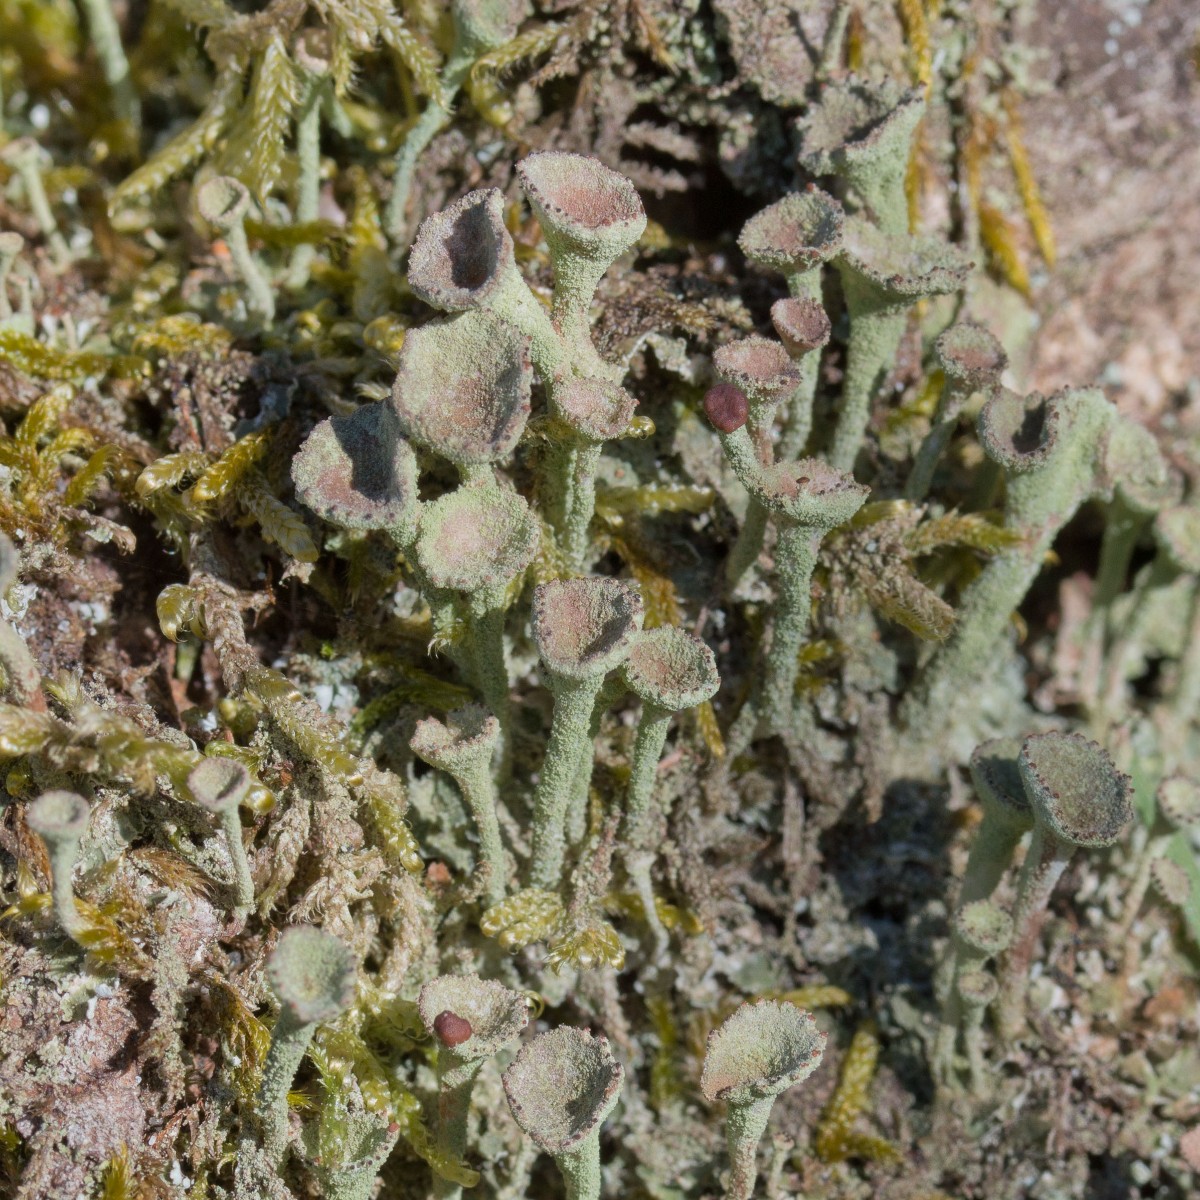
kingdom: Fungi
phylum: Ascomycota
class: Lecanoromycetes
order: Lecanorales
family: Cladoniaceae
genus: Cladonia
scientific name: Cladonia
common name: brungrøn bægerlav
